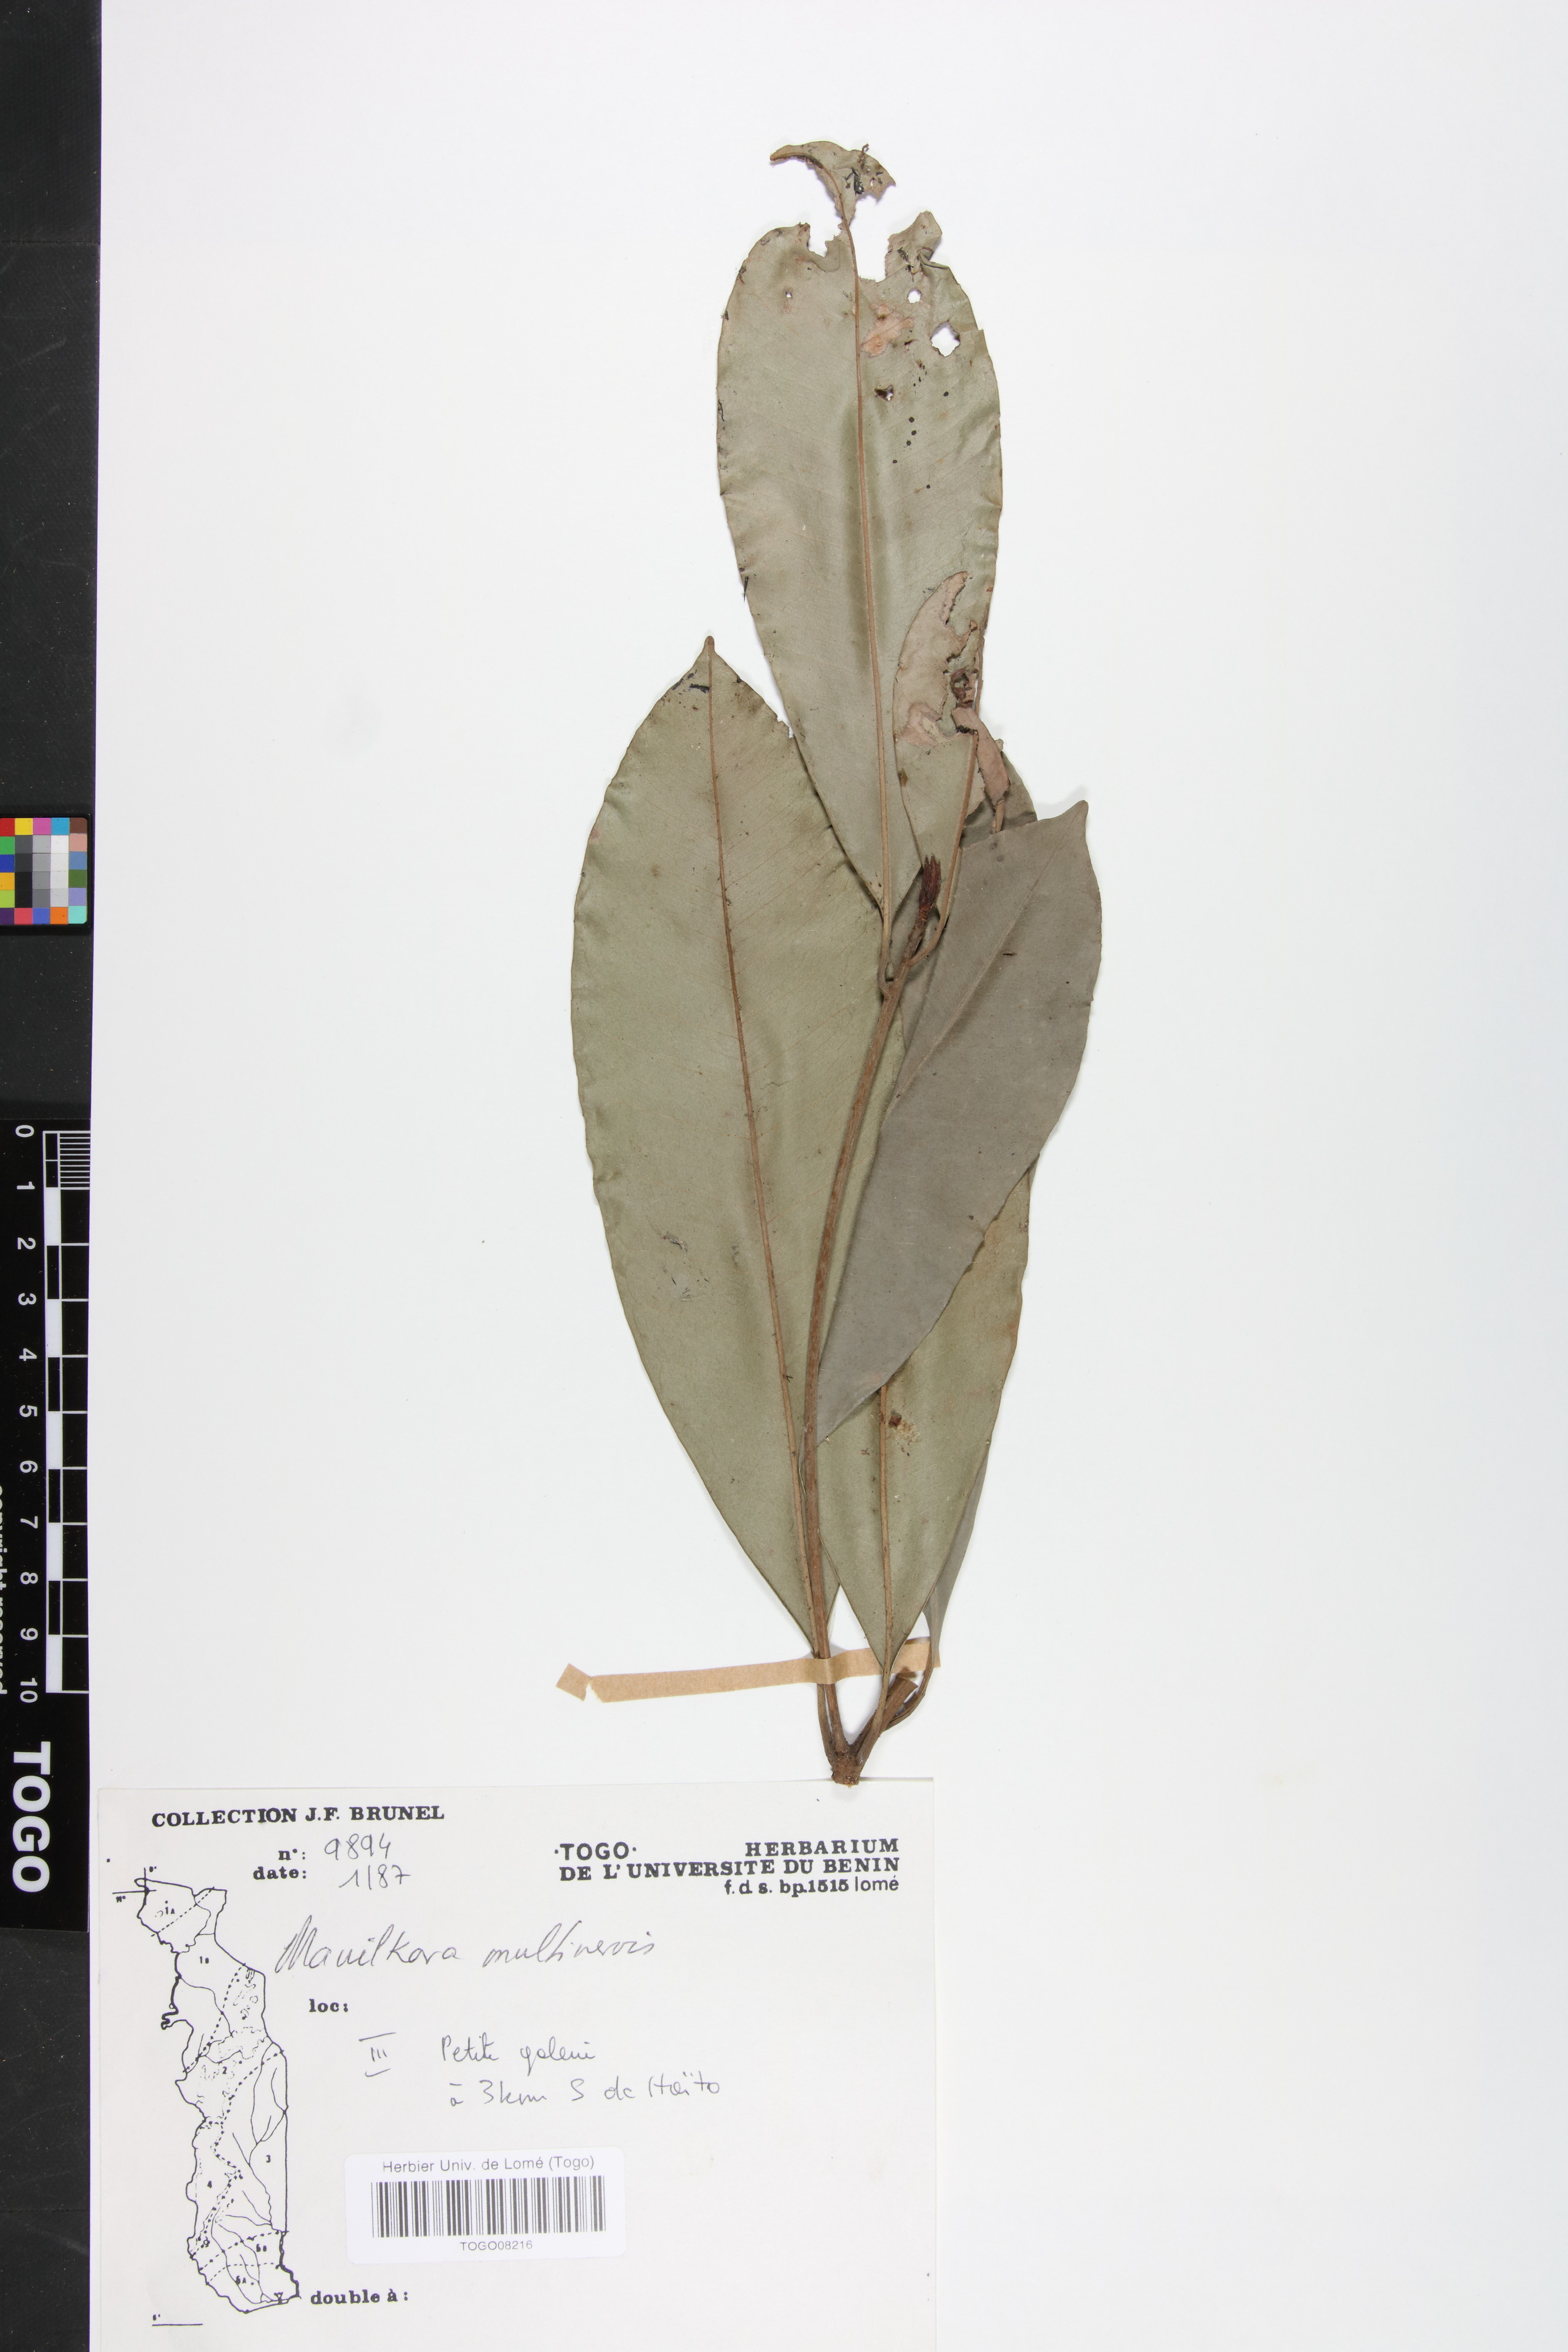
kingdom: Plantae
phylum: Tracheophyta
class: Magnoliopsida
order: Ericales
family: Sapotaceae
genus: Manilkara
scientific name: Manilkara obovata
